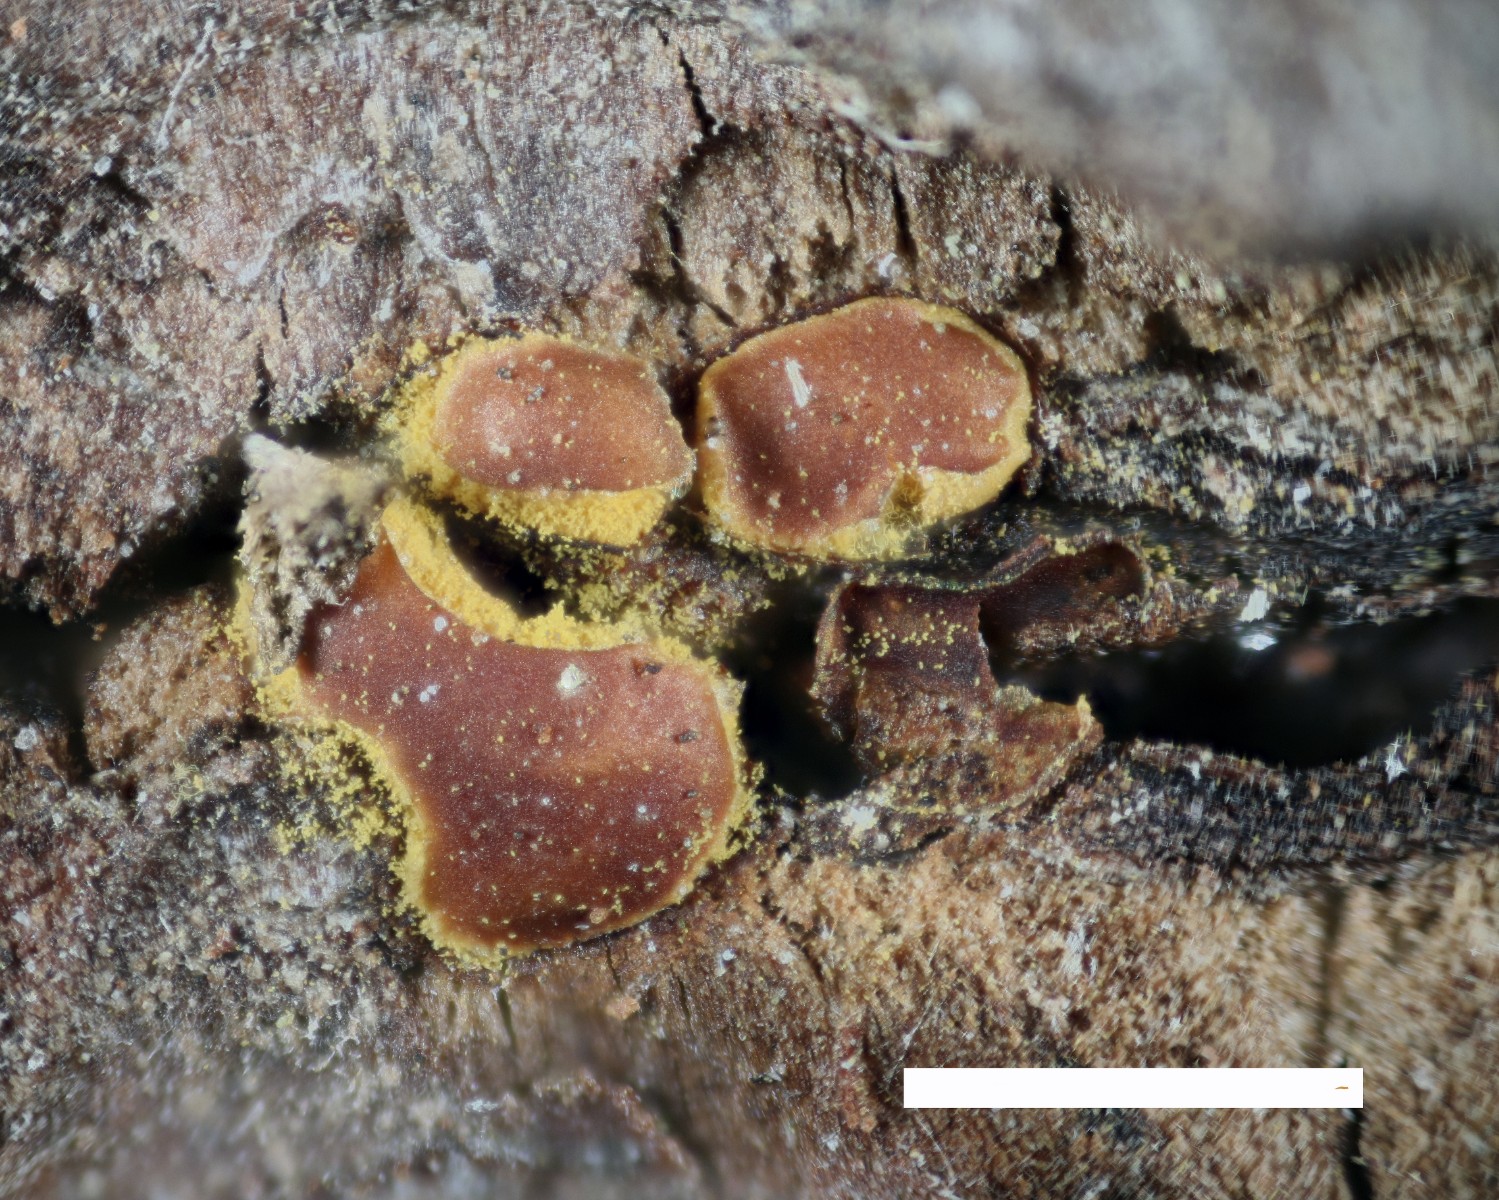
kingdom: Protozoa
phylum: Mycetozoa
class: Myxomycetes
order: Trichiales
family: Trichiaceae
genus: Perichaena
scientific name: Perichaena depressa
